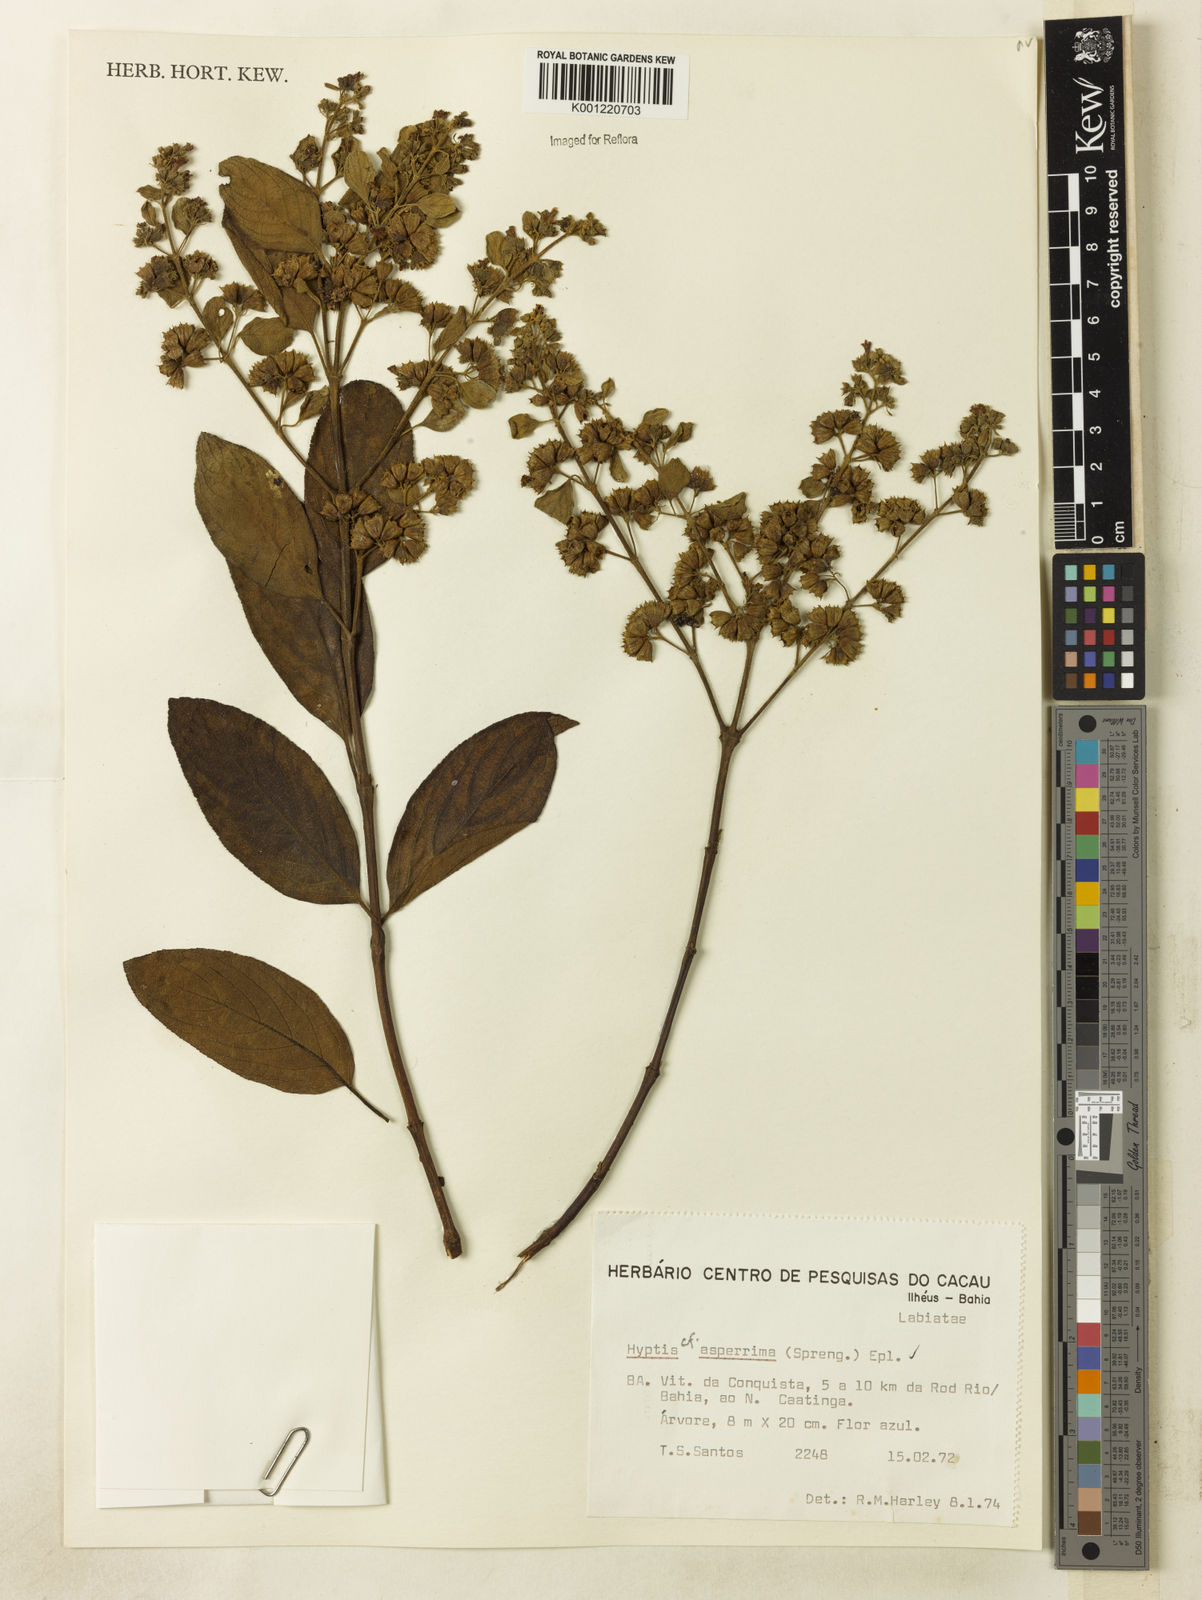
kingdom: Plantae
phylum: Tracheophyta
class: Magnoliopsida
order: Lamiales
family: Lamiaceae
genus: Hyptidendron
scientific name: Hyptidendron asperrimum
